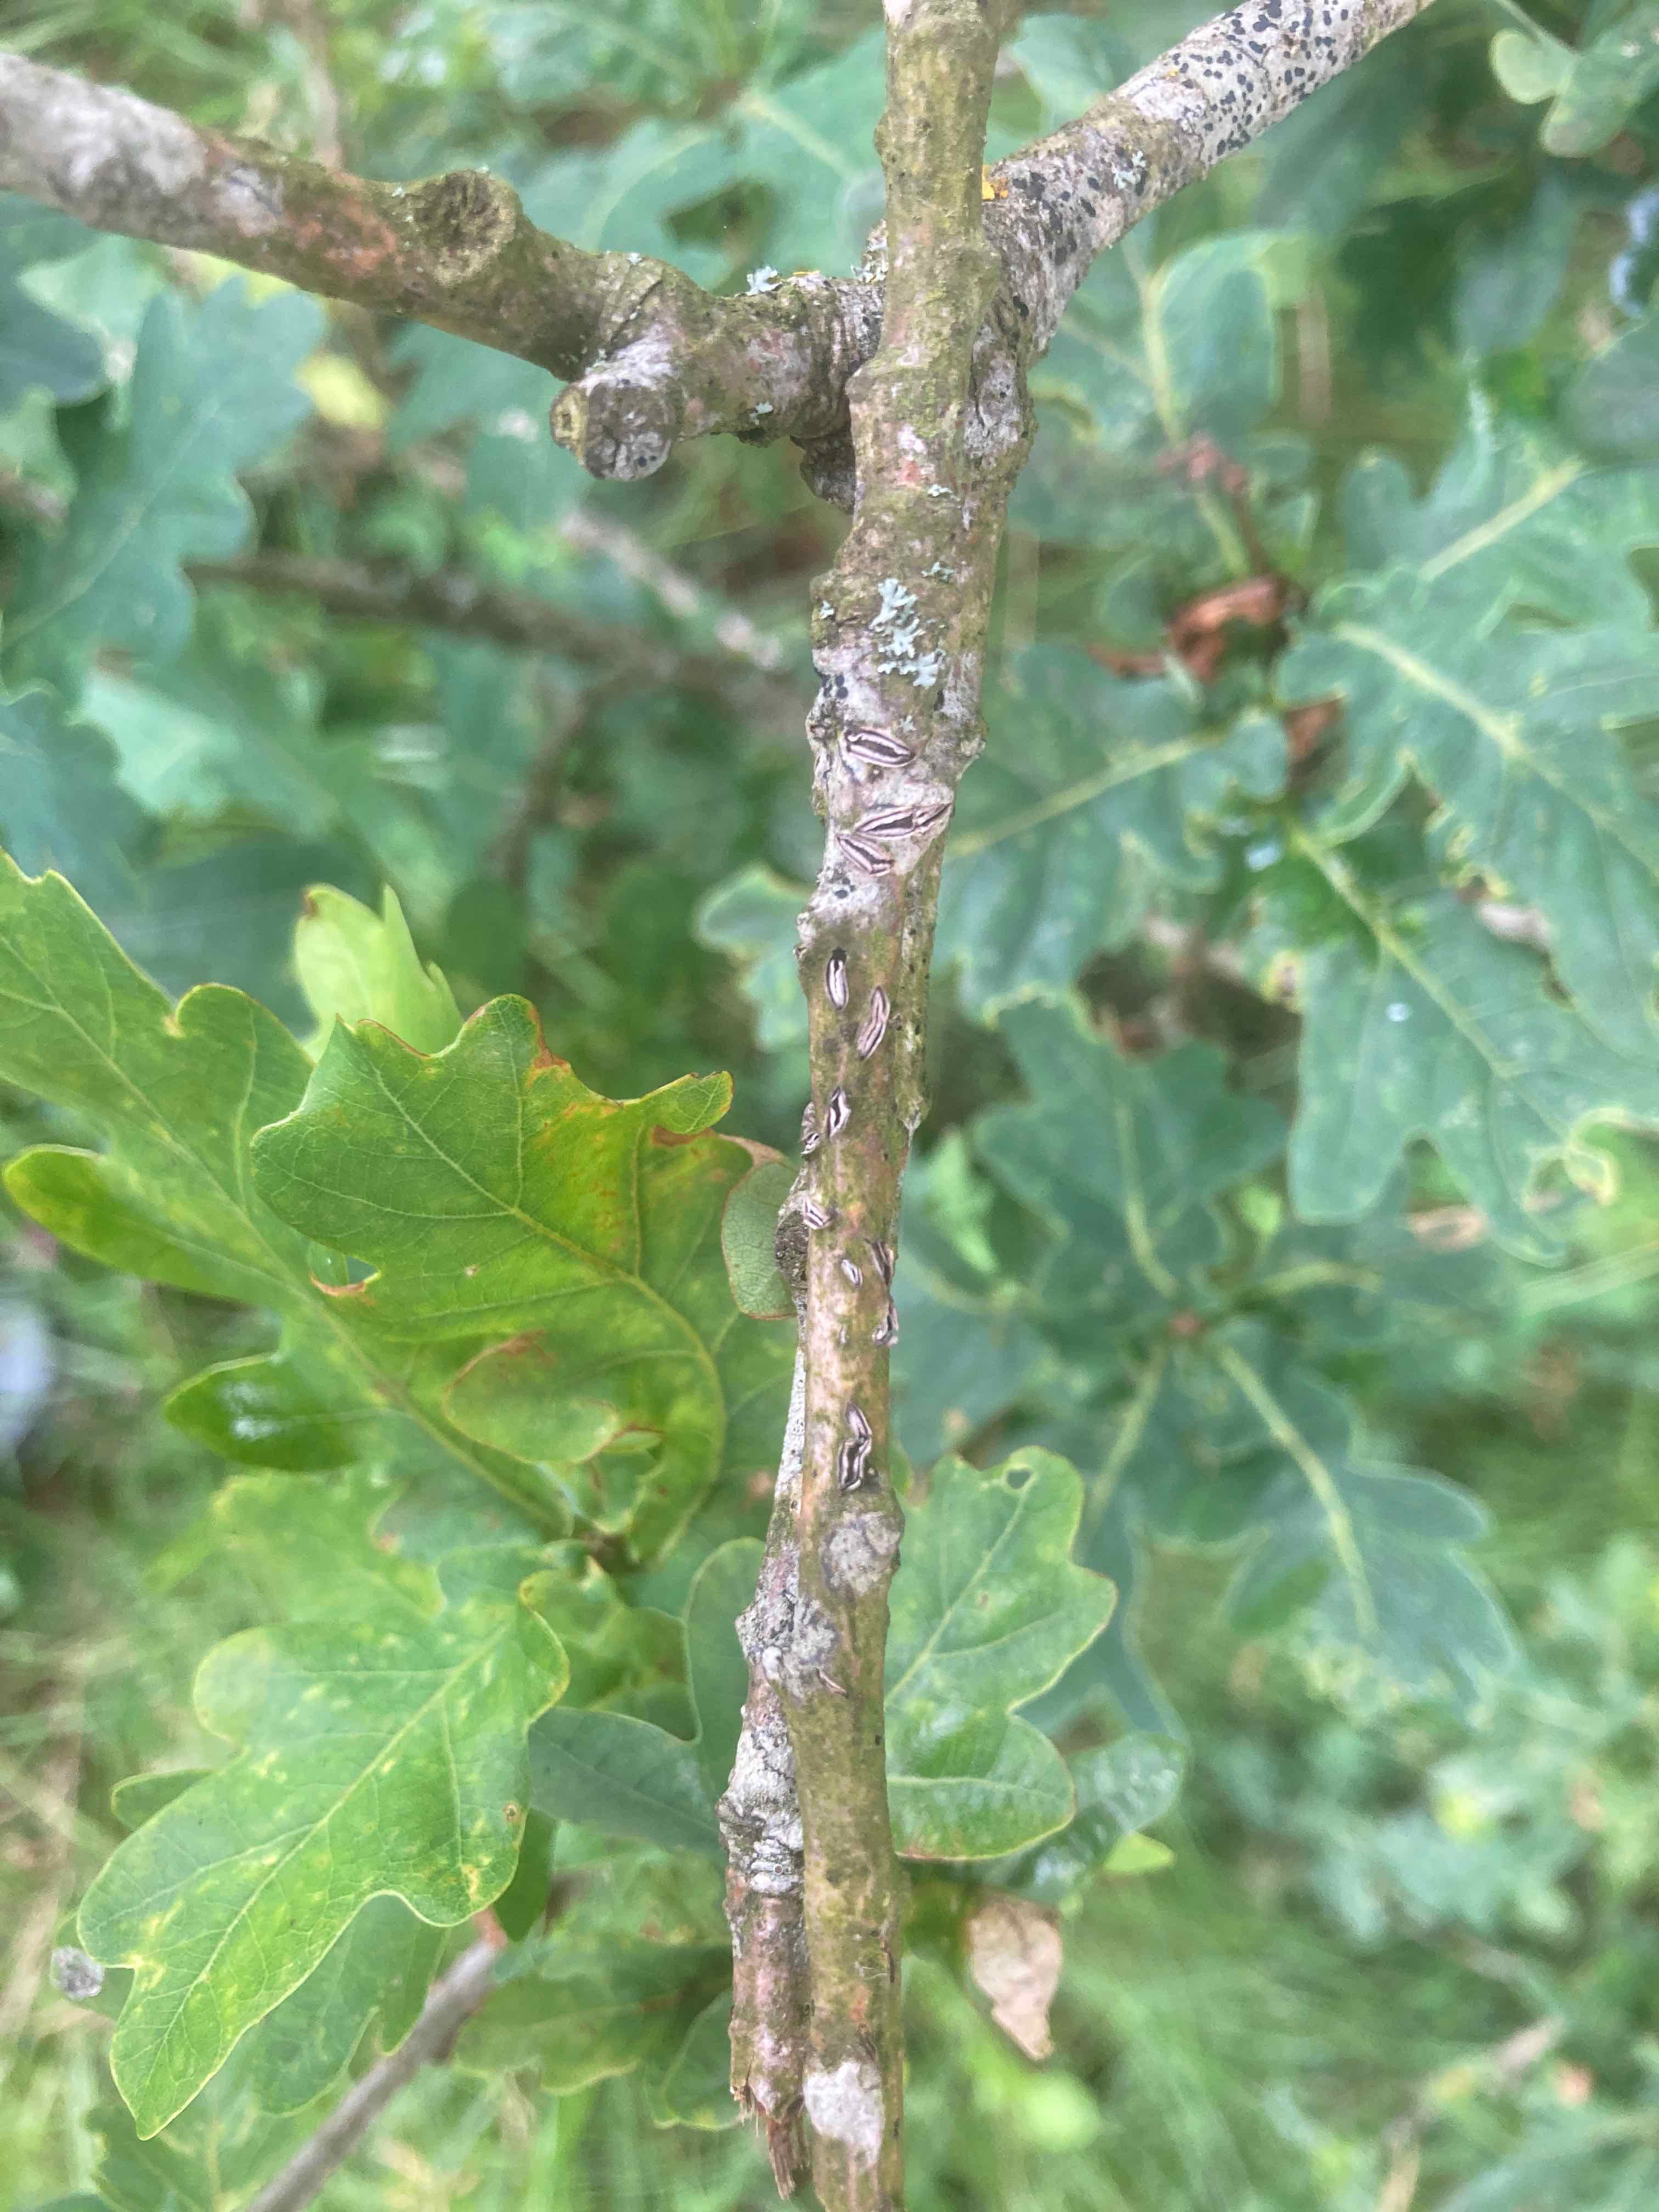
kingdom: Fungi
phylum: Ascomycota
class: Leotiomycetes
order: Rhytismatales
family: Rhytismataceae
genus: Colpoma
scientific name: Colpoma quercinum
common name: ege-sprækkeskive
